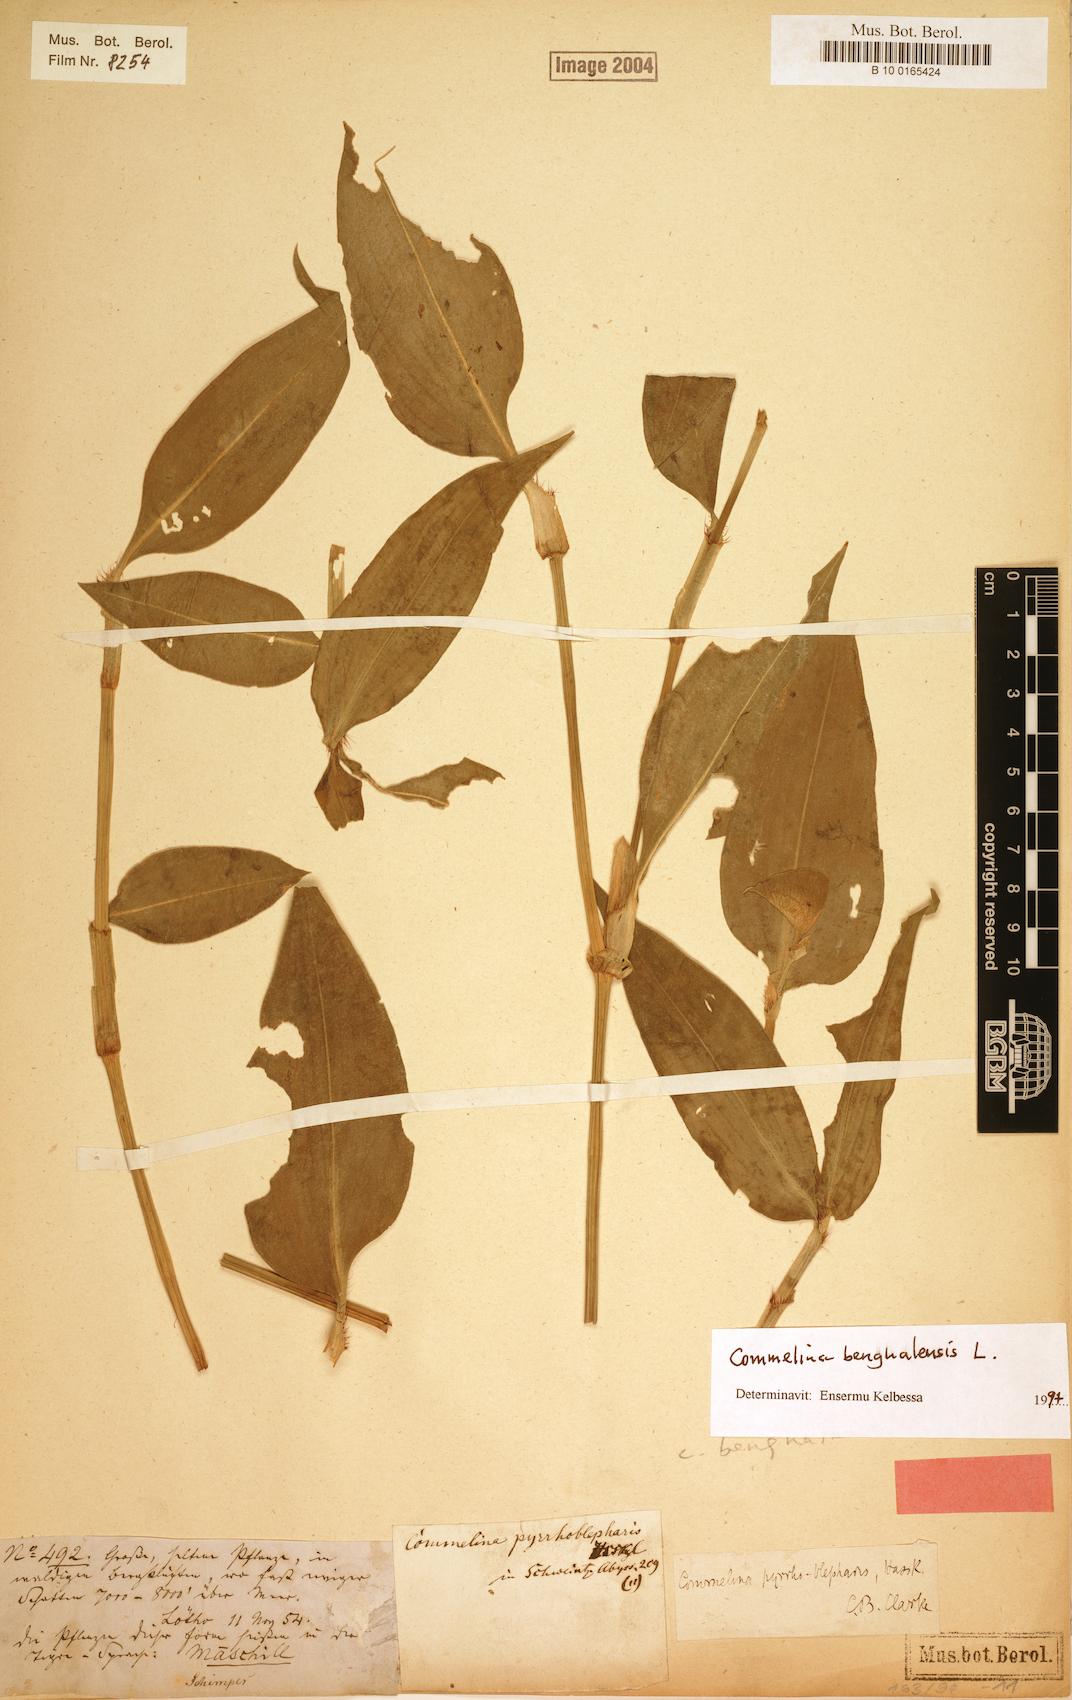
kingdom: Plantae
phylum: Tracheophyta
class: Liliopsida
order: Commelinales
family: Commelinaceae
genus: Commelina
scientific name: Commelina benghalensis
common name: Jio
